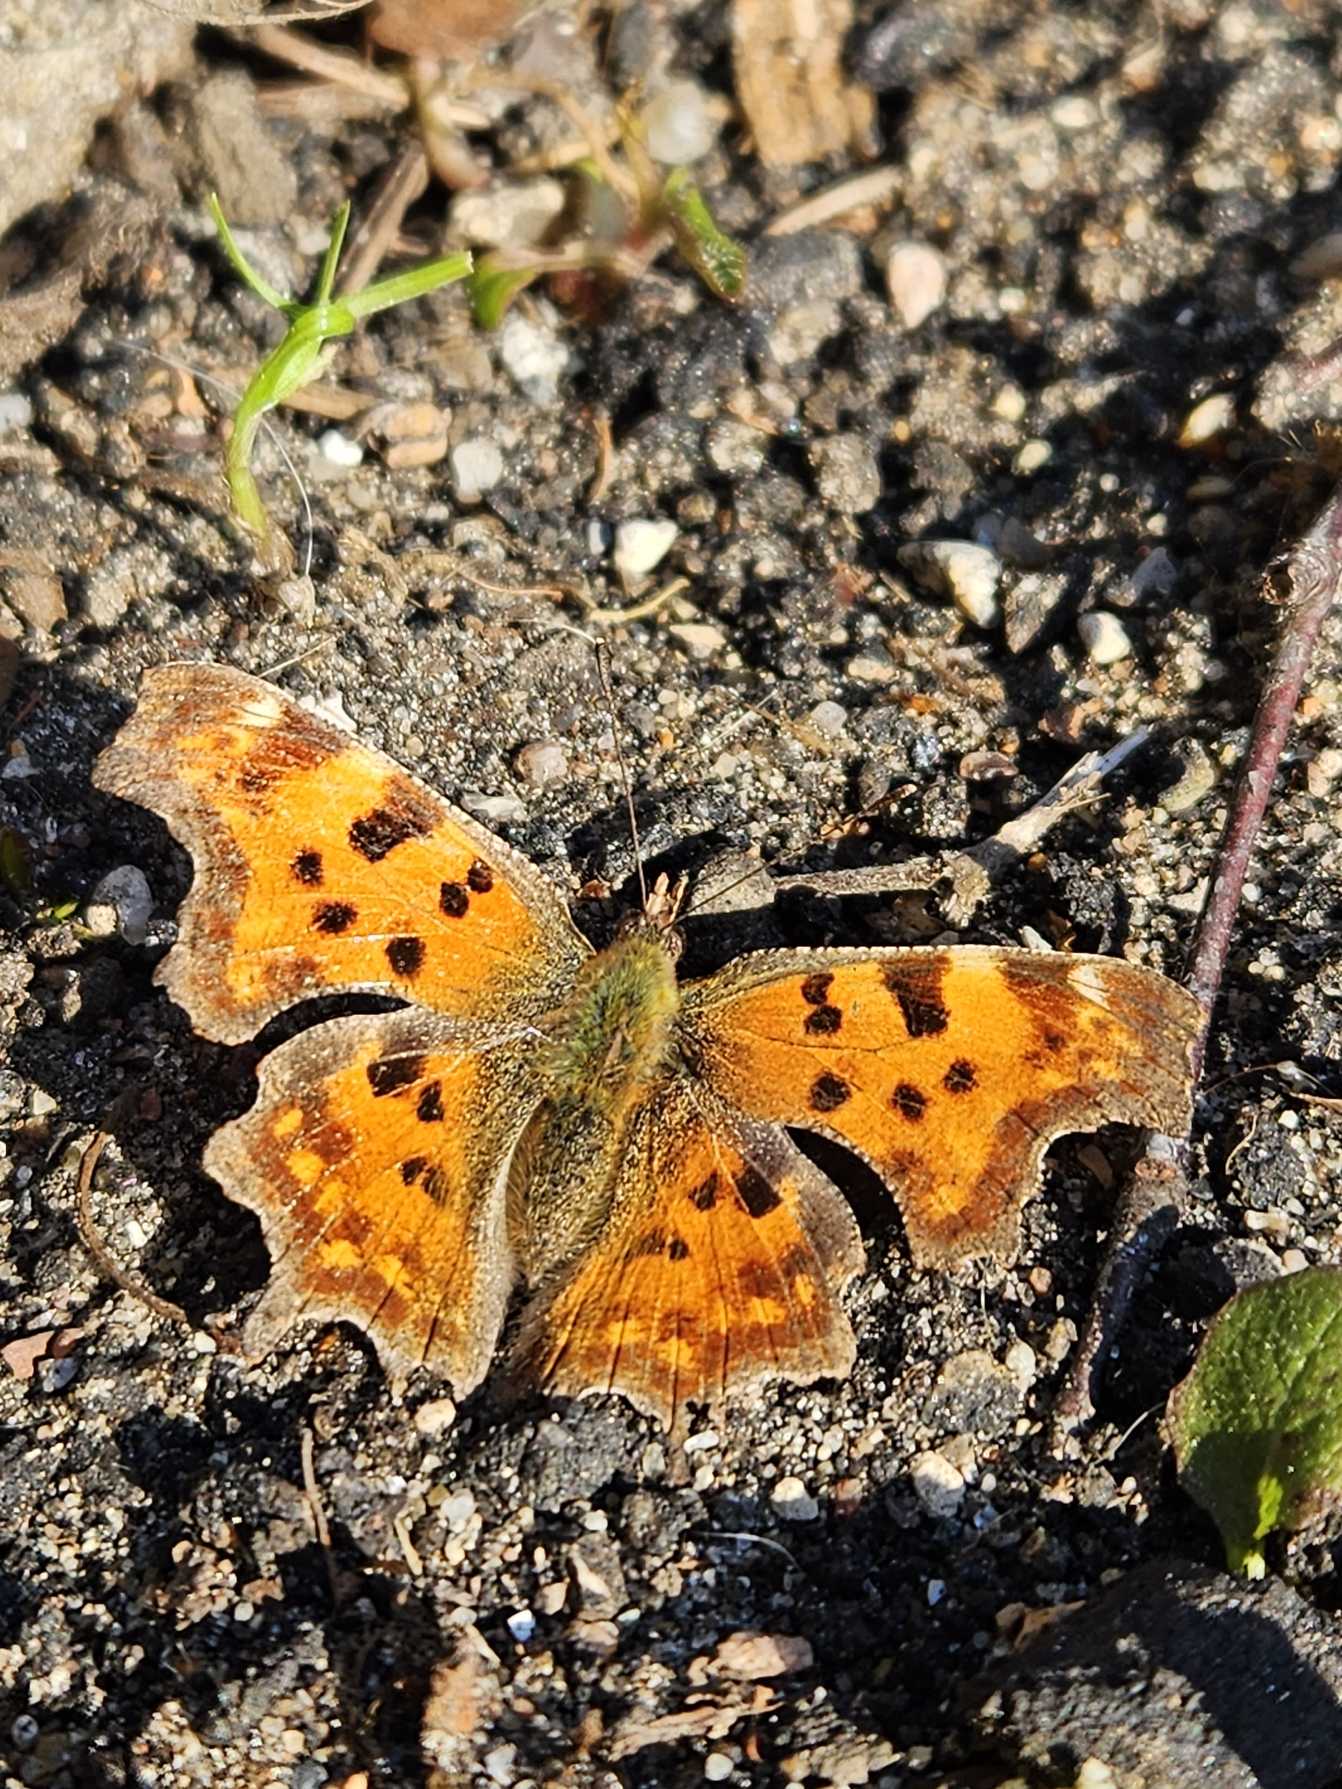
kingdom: Animalia
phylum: Arthropoda
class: Insecta
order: Lepidoptera
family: Nymphalidae
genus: Polygonia
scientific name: Polygonia c-album
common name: Det hvide C
